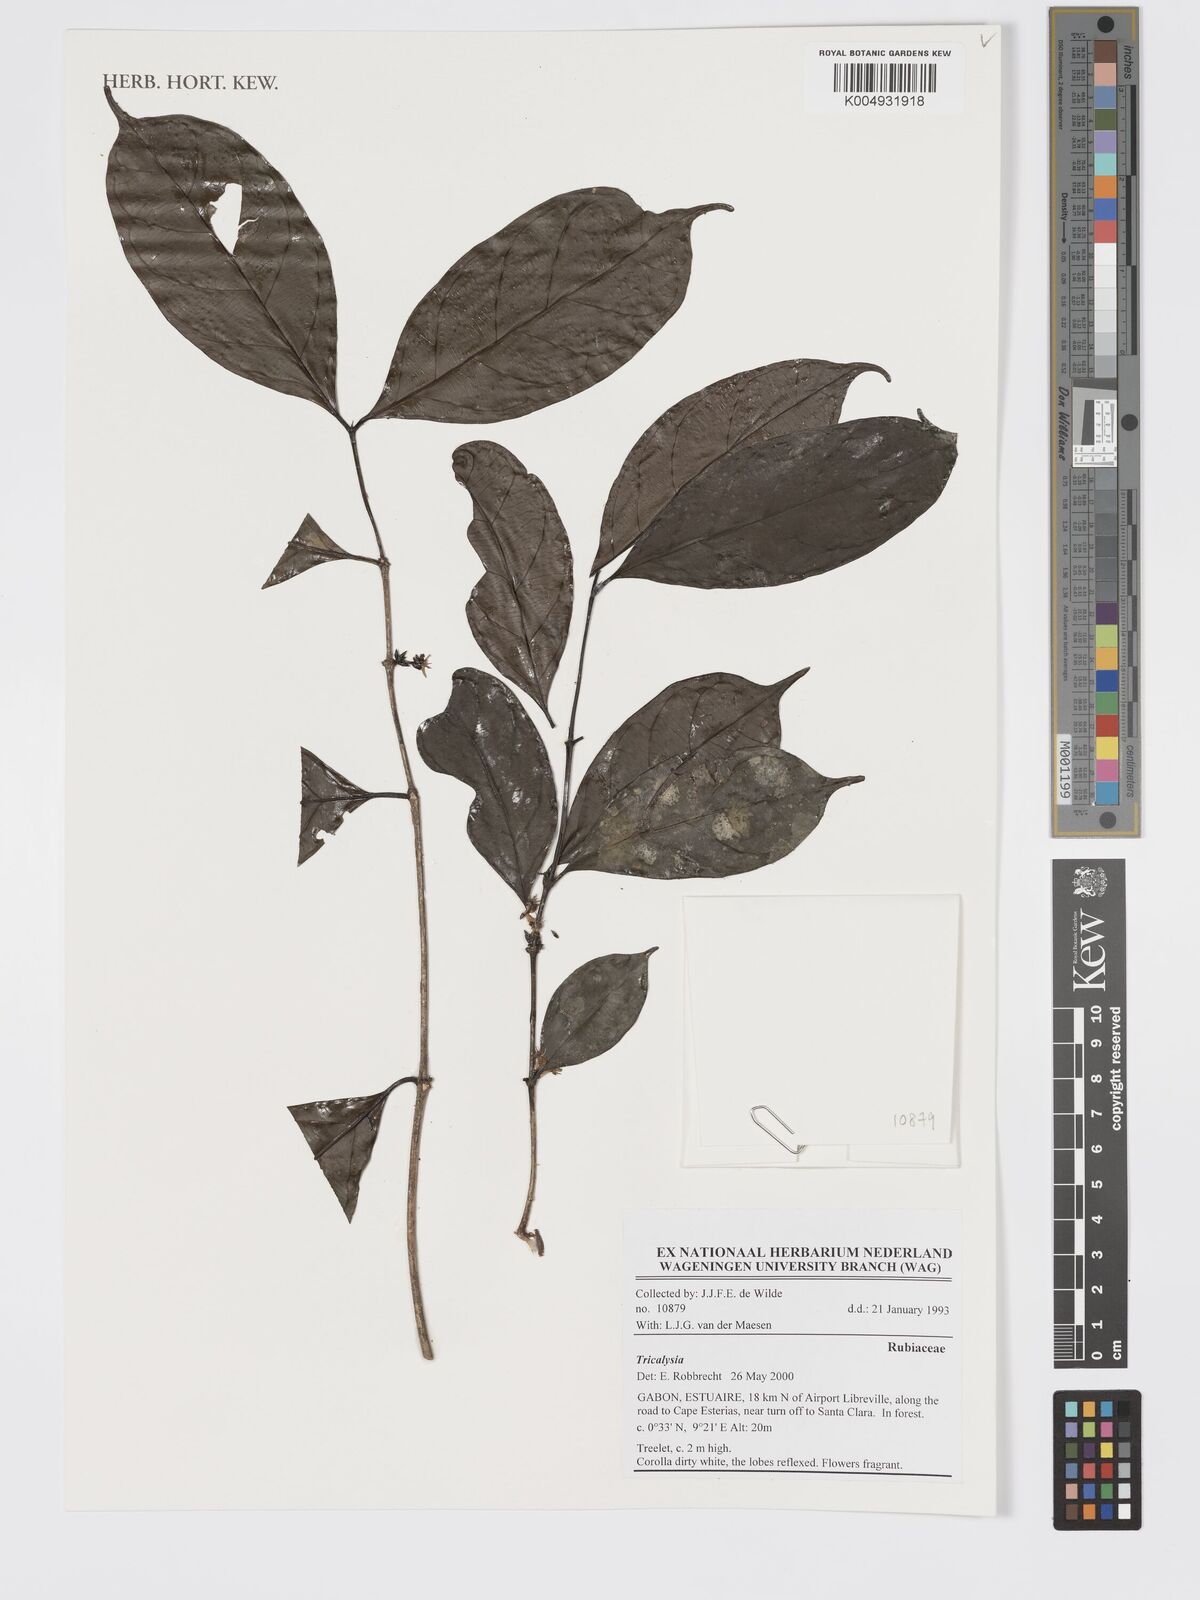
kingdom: Plantae
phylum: Tracheophyta
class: Magnoliopsida
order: Gentianales
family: Rubiaceae
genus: Tricalysia
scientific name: Tricalysia
